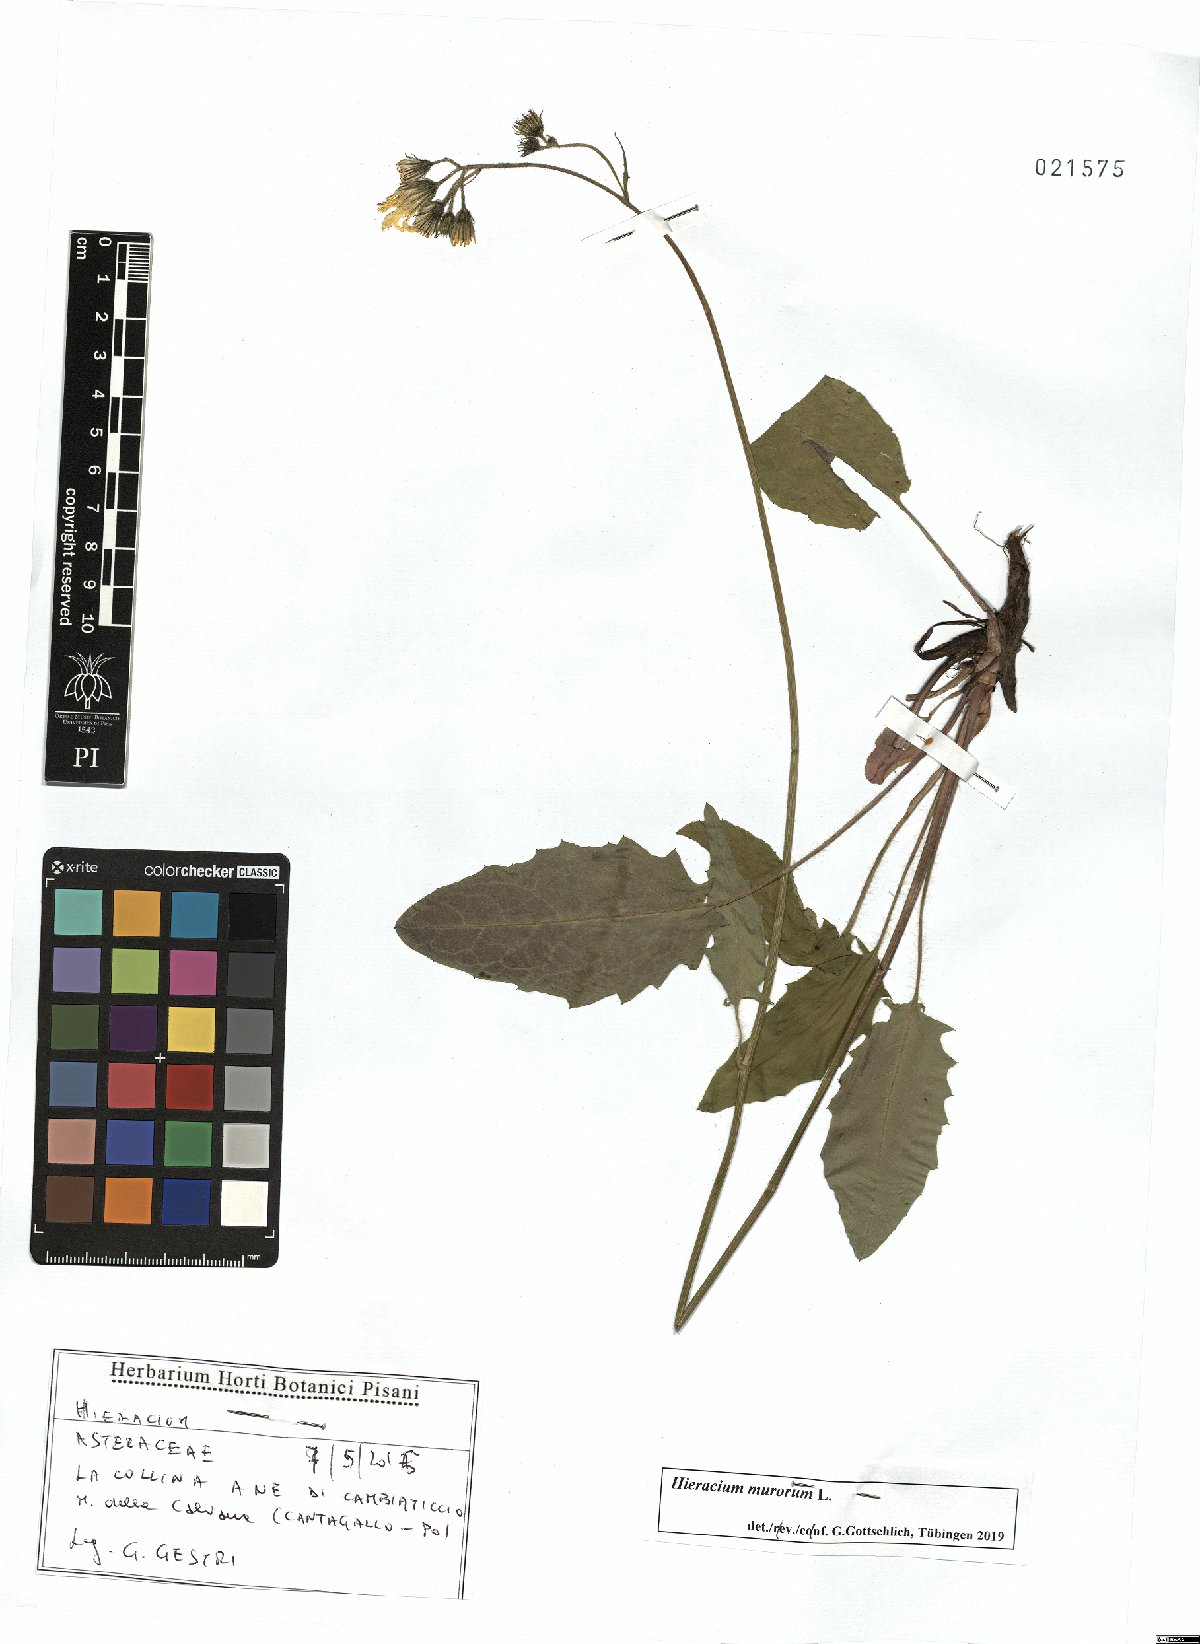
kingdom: Plantae
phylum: Tracheophyta
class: Magnoliopsida
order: Asterales
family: Asteraceae
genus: Hieracium
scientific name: Hieracium murorum
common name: Wall hawkweed
